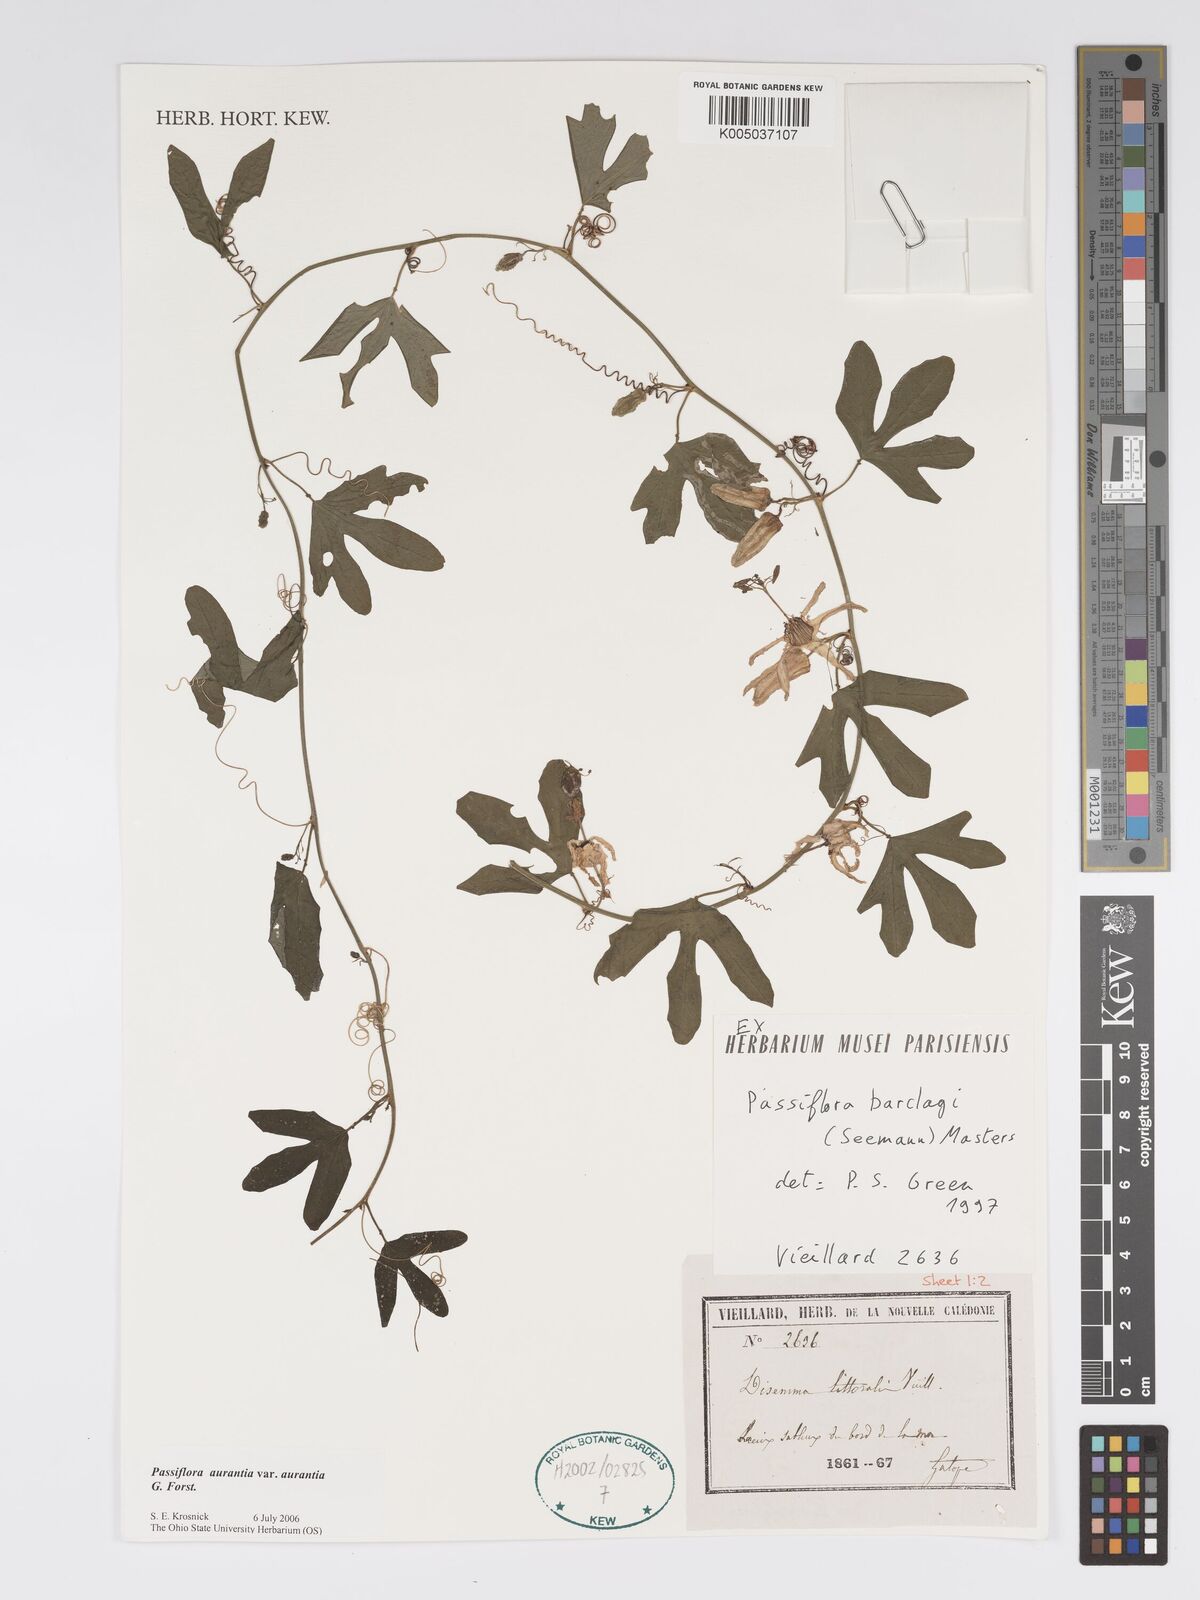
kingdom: Plantae
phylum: Tracheophyta
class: Magnoliopsida
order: Malpighiales
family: Passifloraceae
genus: Passiflora
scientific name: Passiflora aurantia
